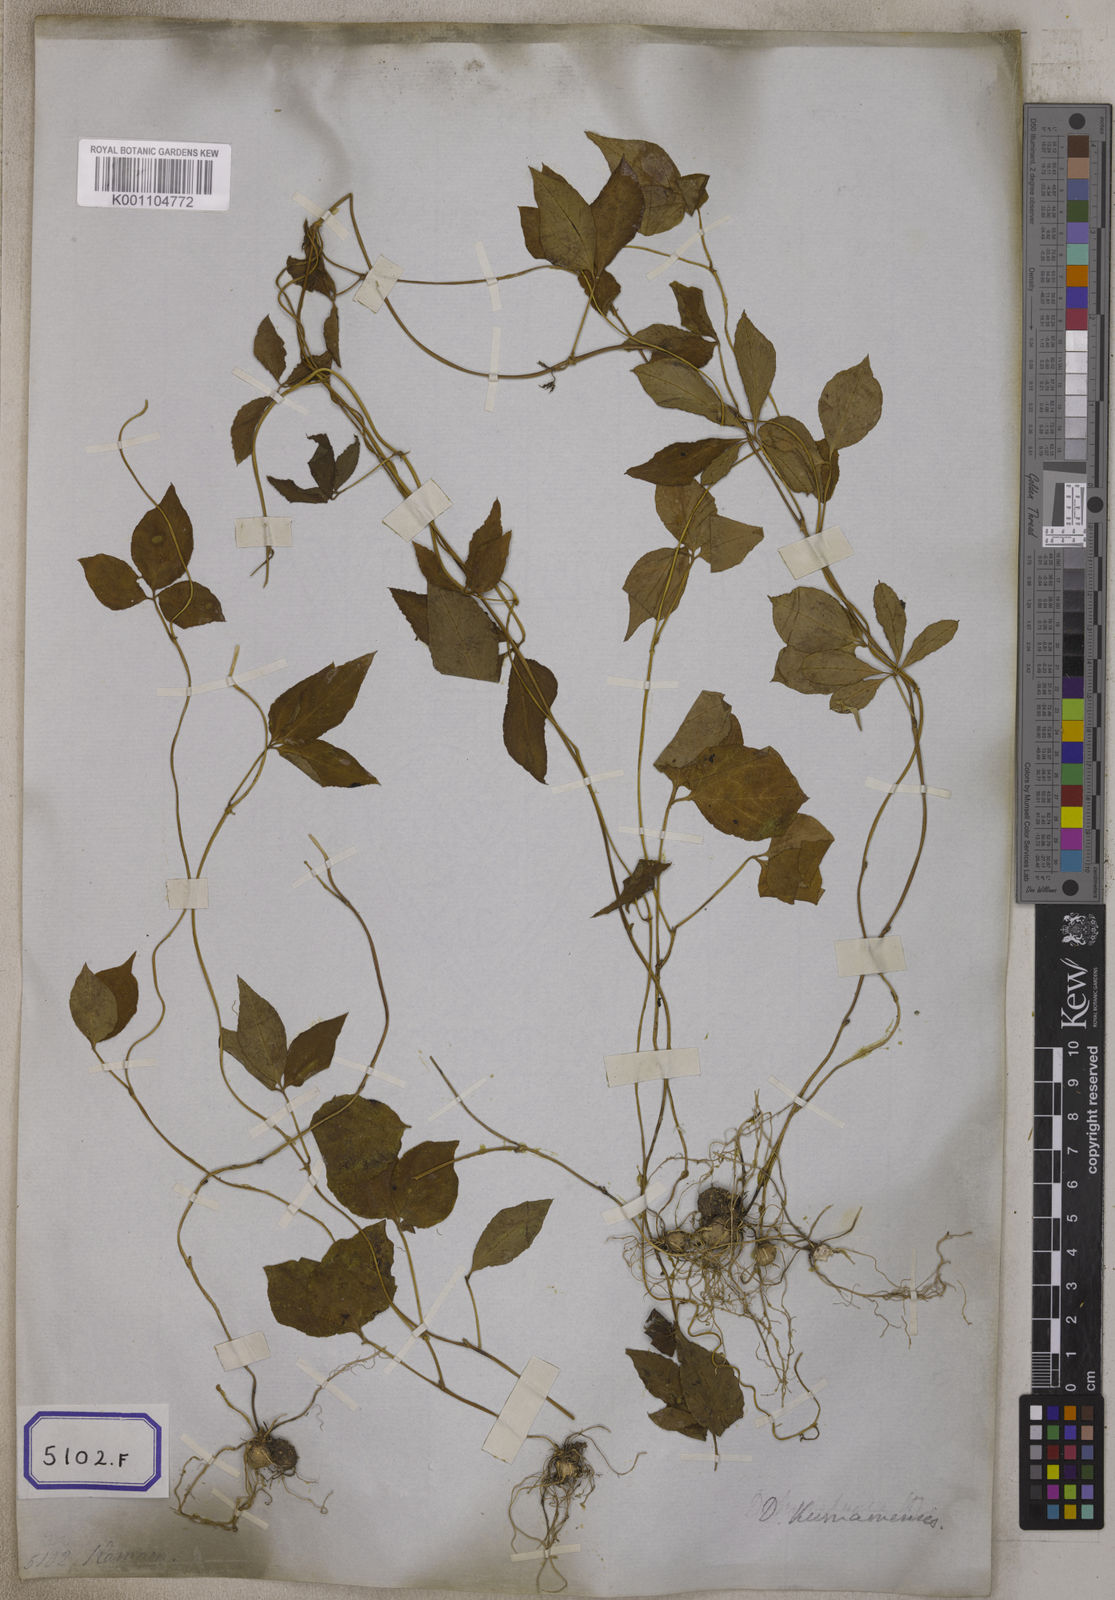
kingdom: Plantae
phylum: Tracheophyta
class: Liliopsida
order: Dioscoreales
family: Dioscoreaceae
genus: Dioscorea
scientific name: Dioscorea pentaphylla
